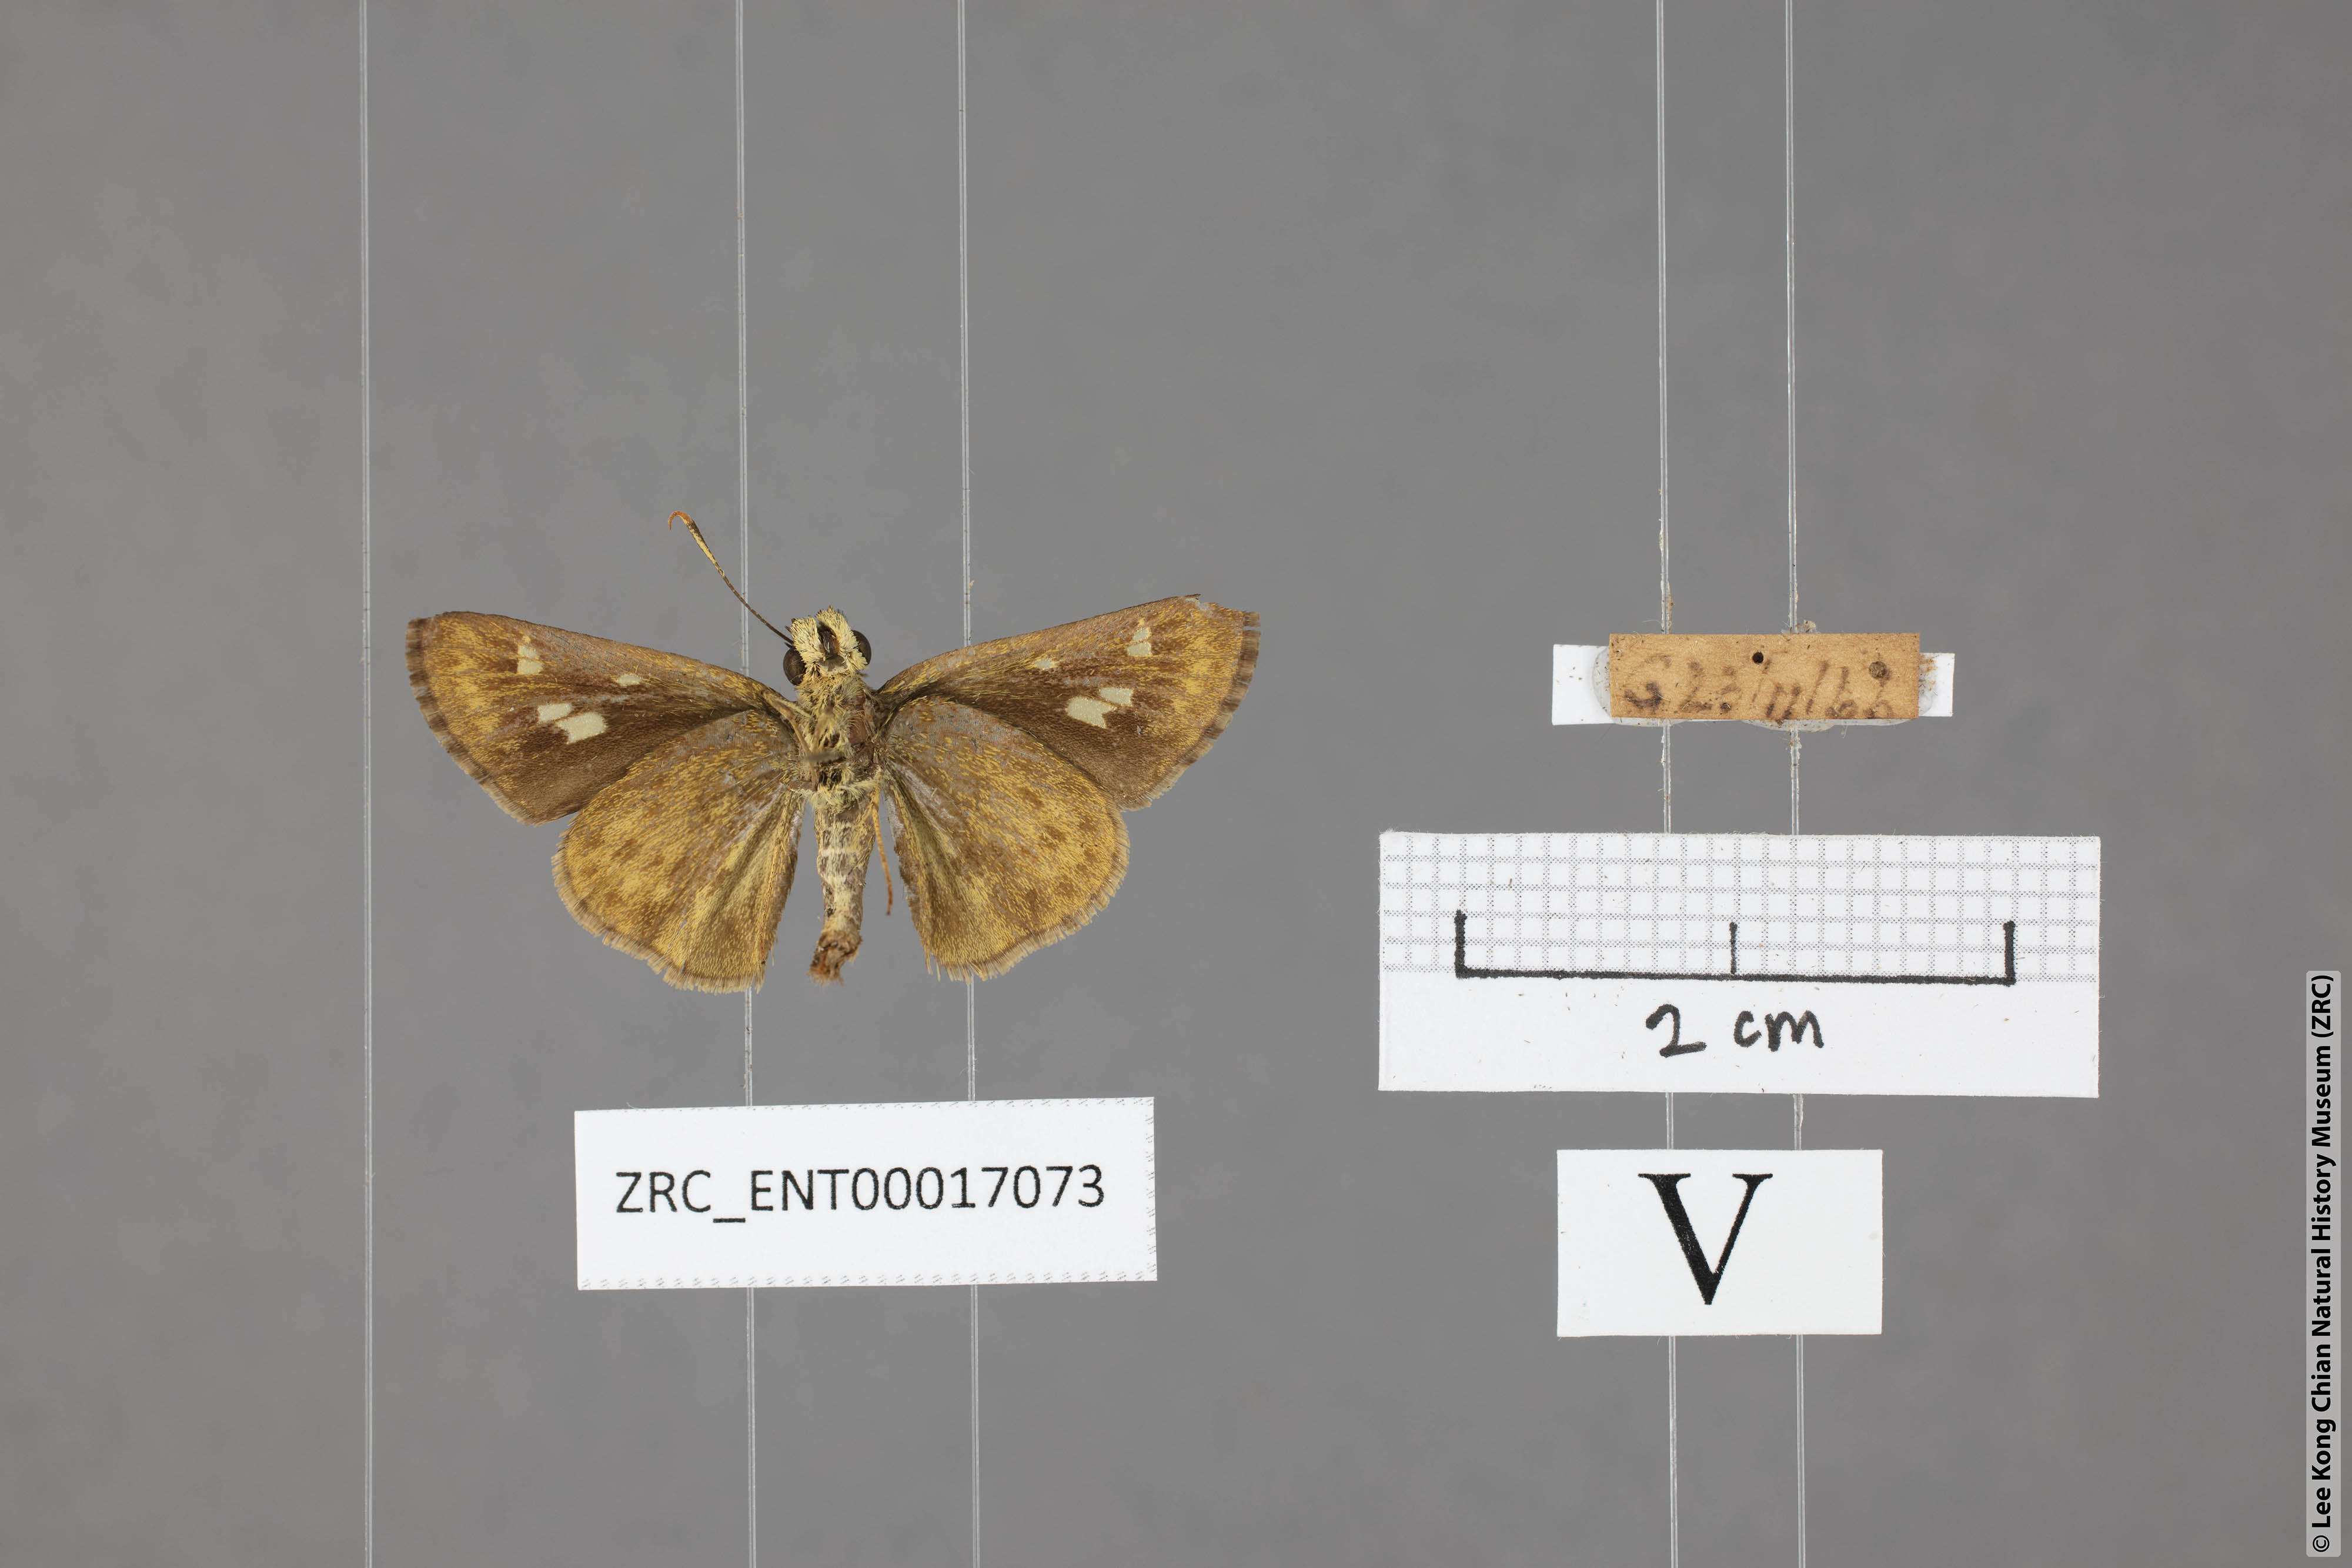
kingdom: Animalia
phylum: Arthropoda
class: Insecta
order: Lepidoptera
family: Hesperiidae
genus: Halpe
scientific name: Halpe veluvana
